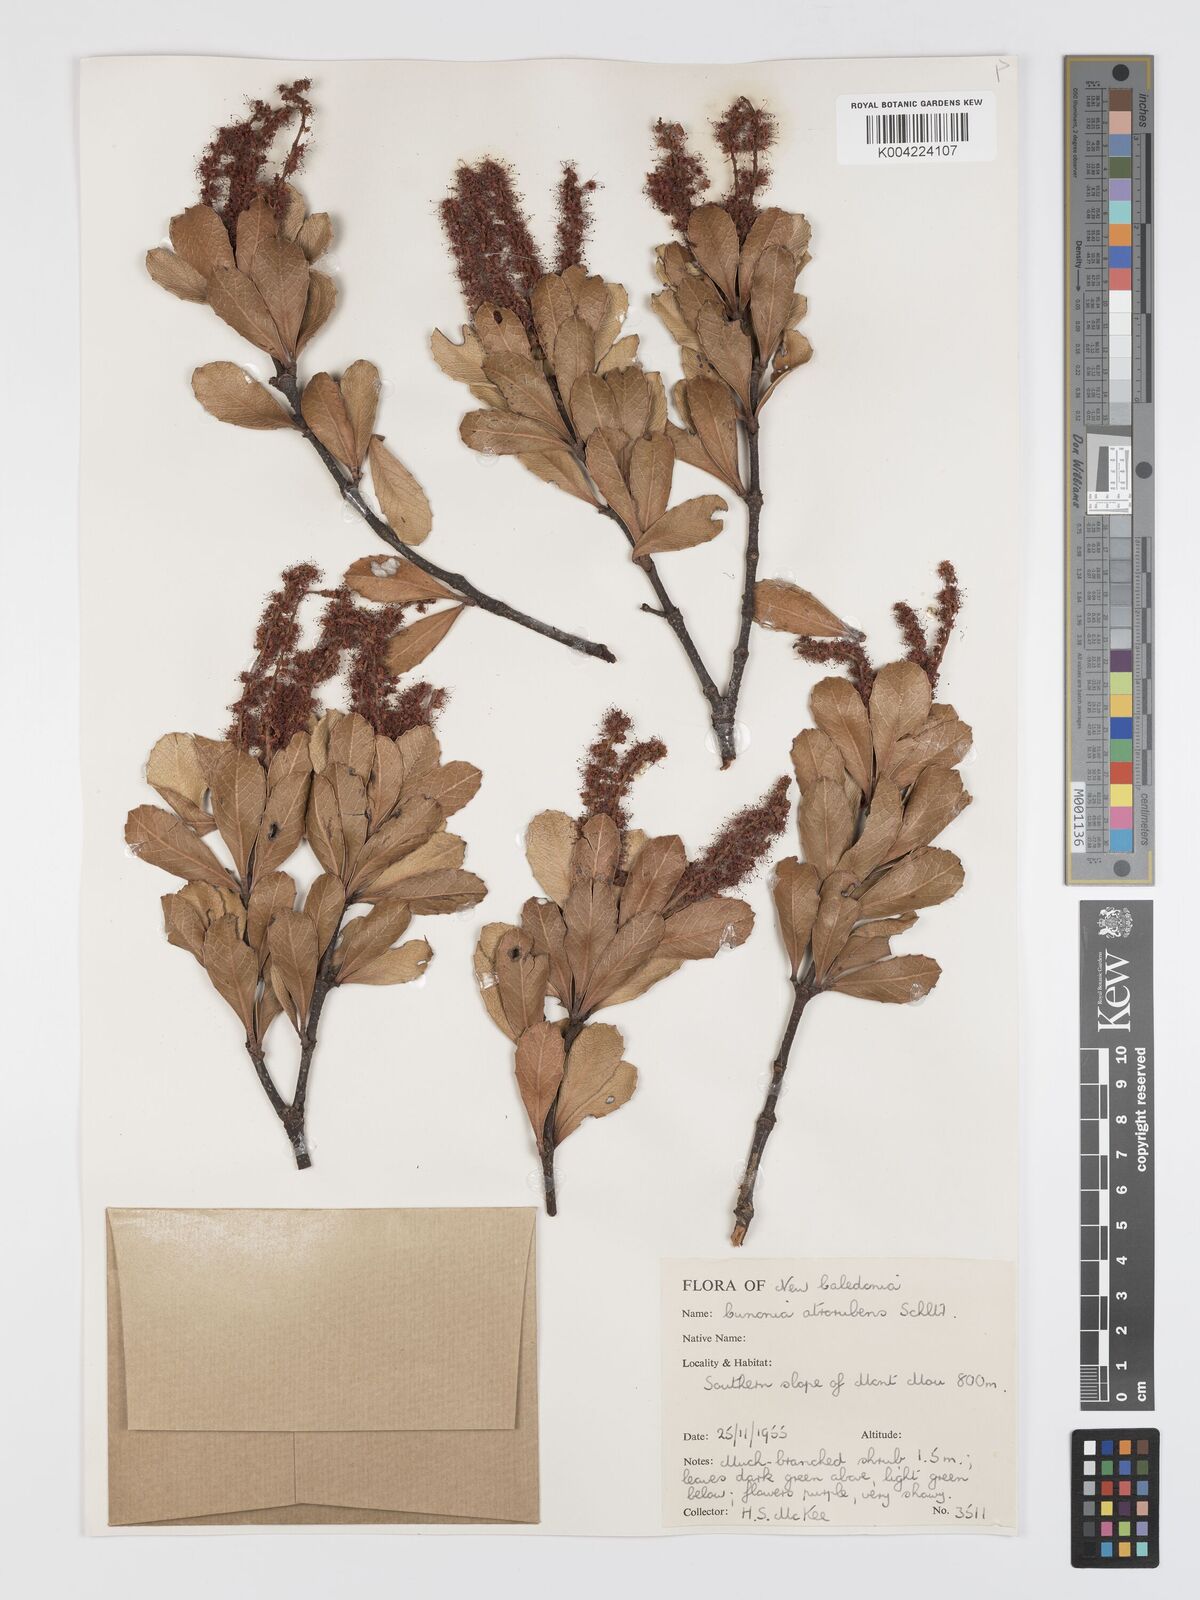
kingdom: Plantae
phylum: Tracheophyta
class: Magnoliopsida
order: Oxalidales
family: Cunoniaceae
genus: Cunonia
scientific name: Cunonia atrorubens
